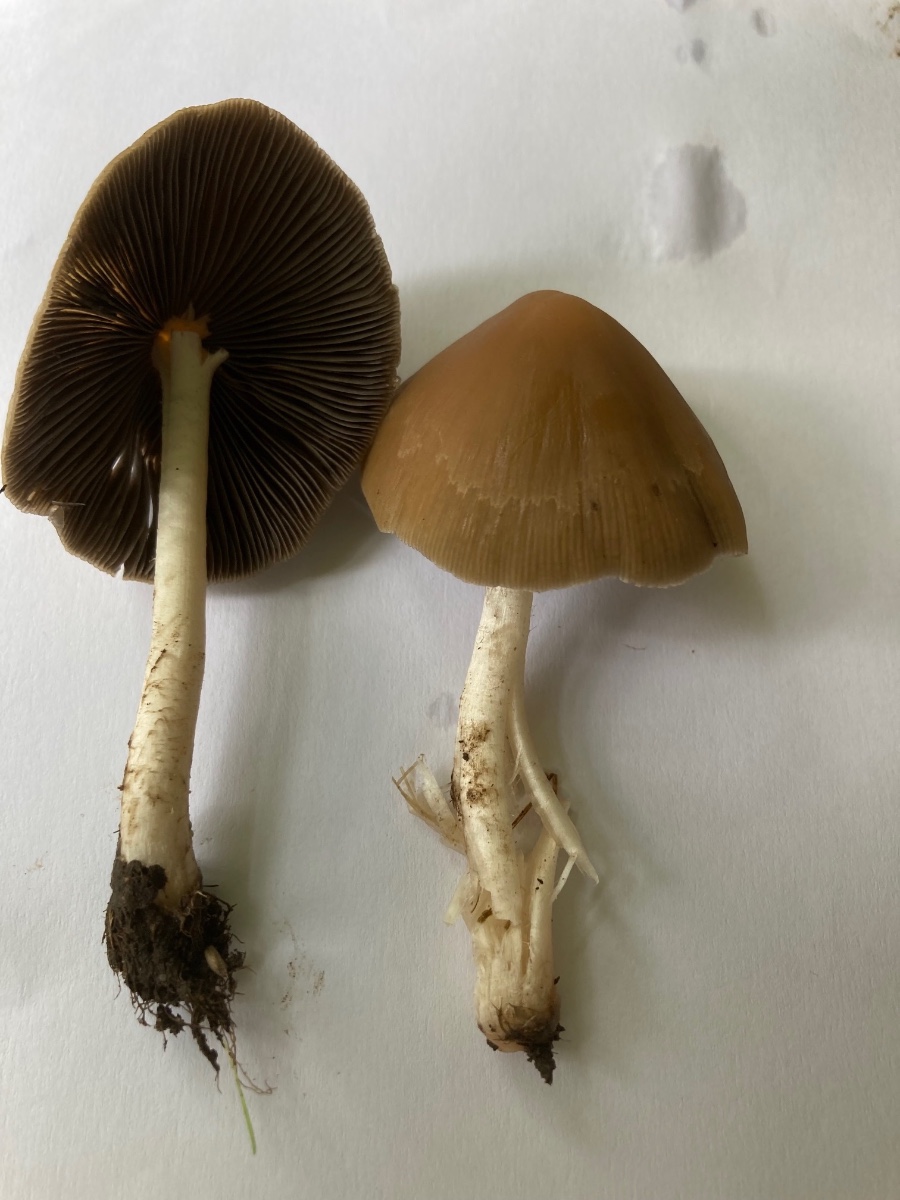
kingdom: Fungi
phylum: Basidiomycota
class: Agaricomycetes
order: Agaricales
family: Psathyrellaceae
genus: Psathyrella
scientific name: Psathyrella fusca
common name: gråbladet mørkhat
